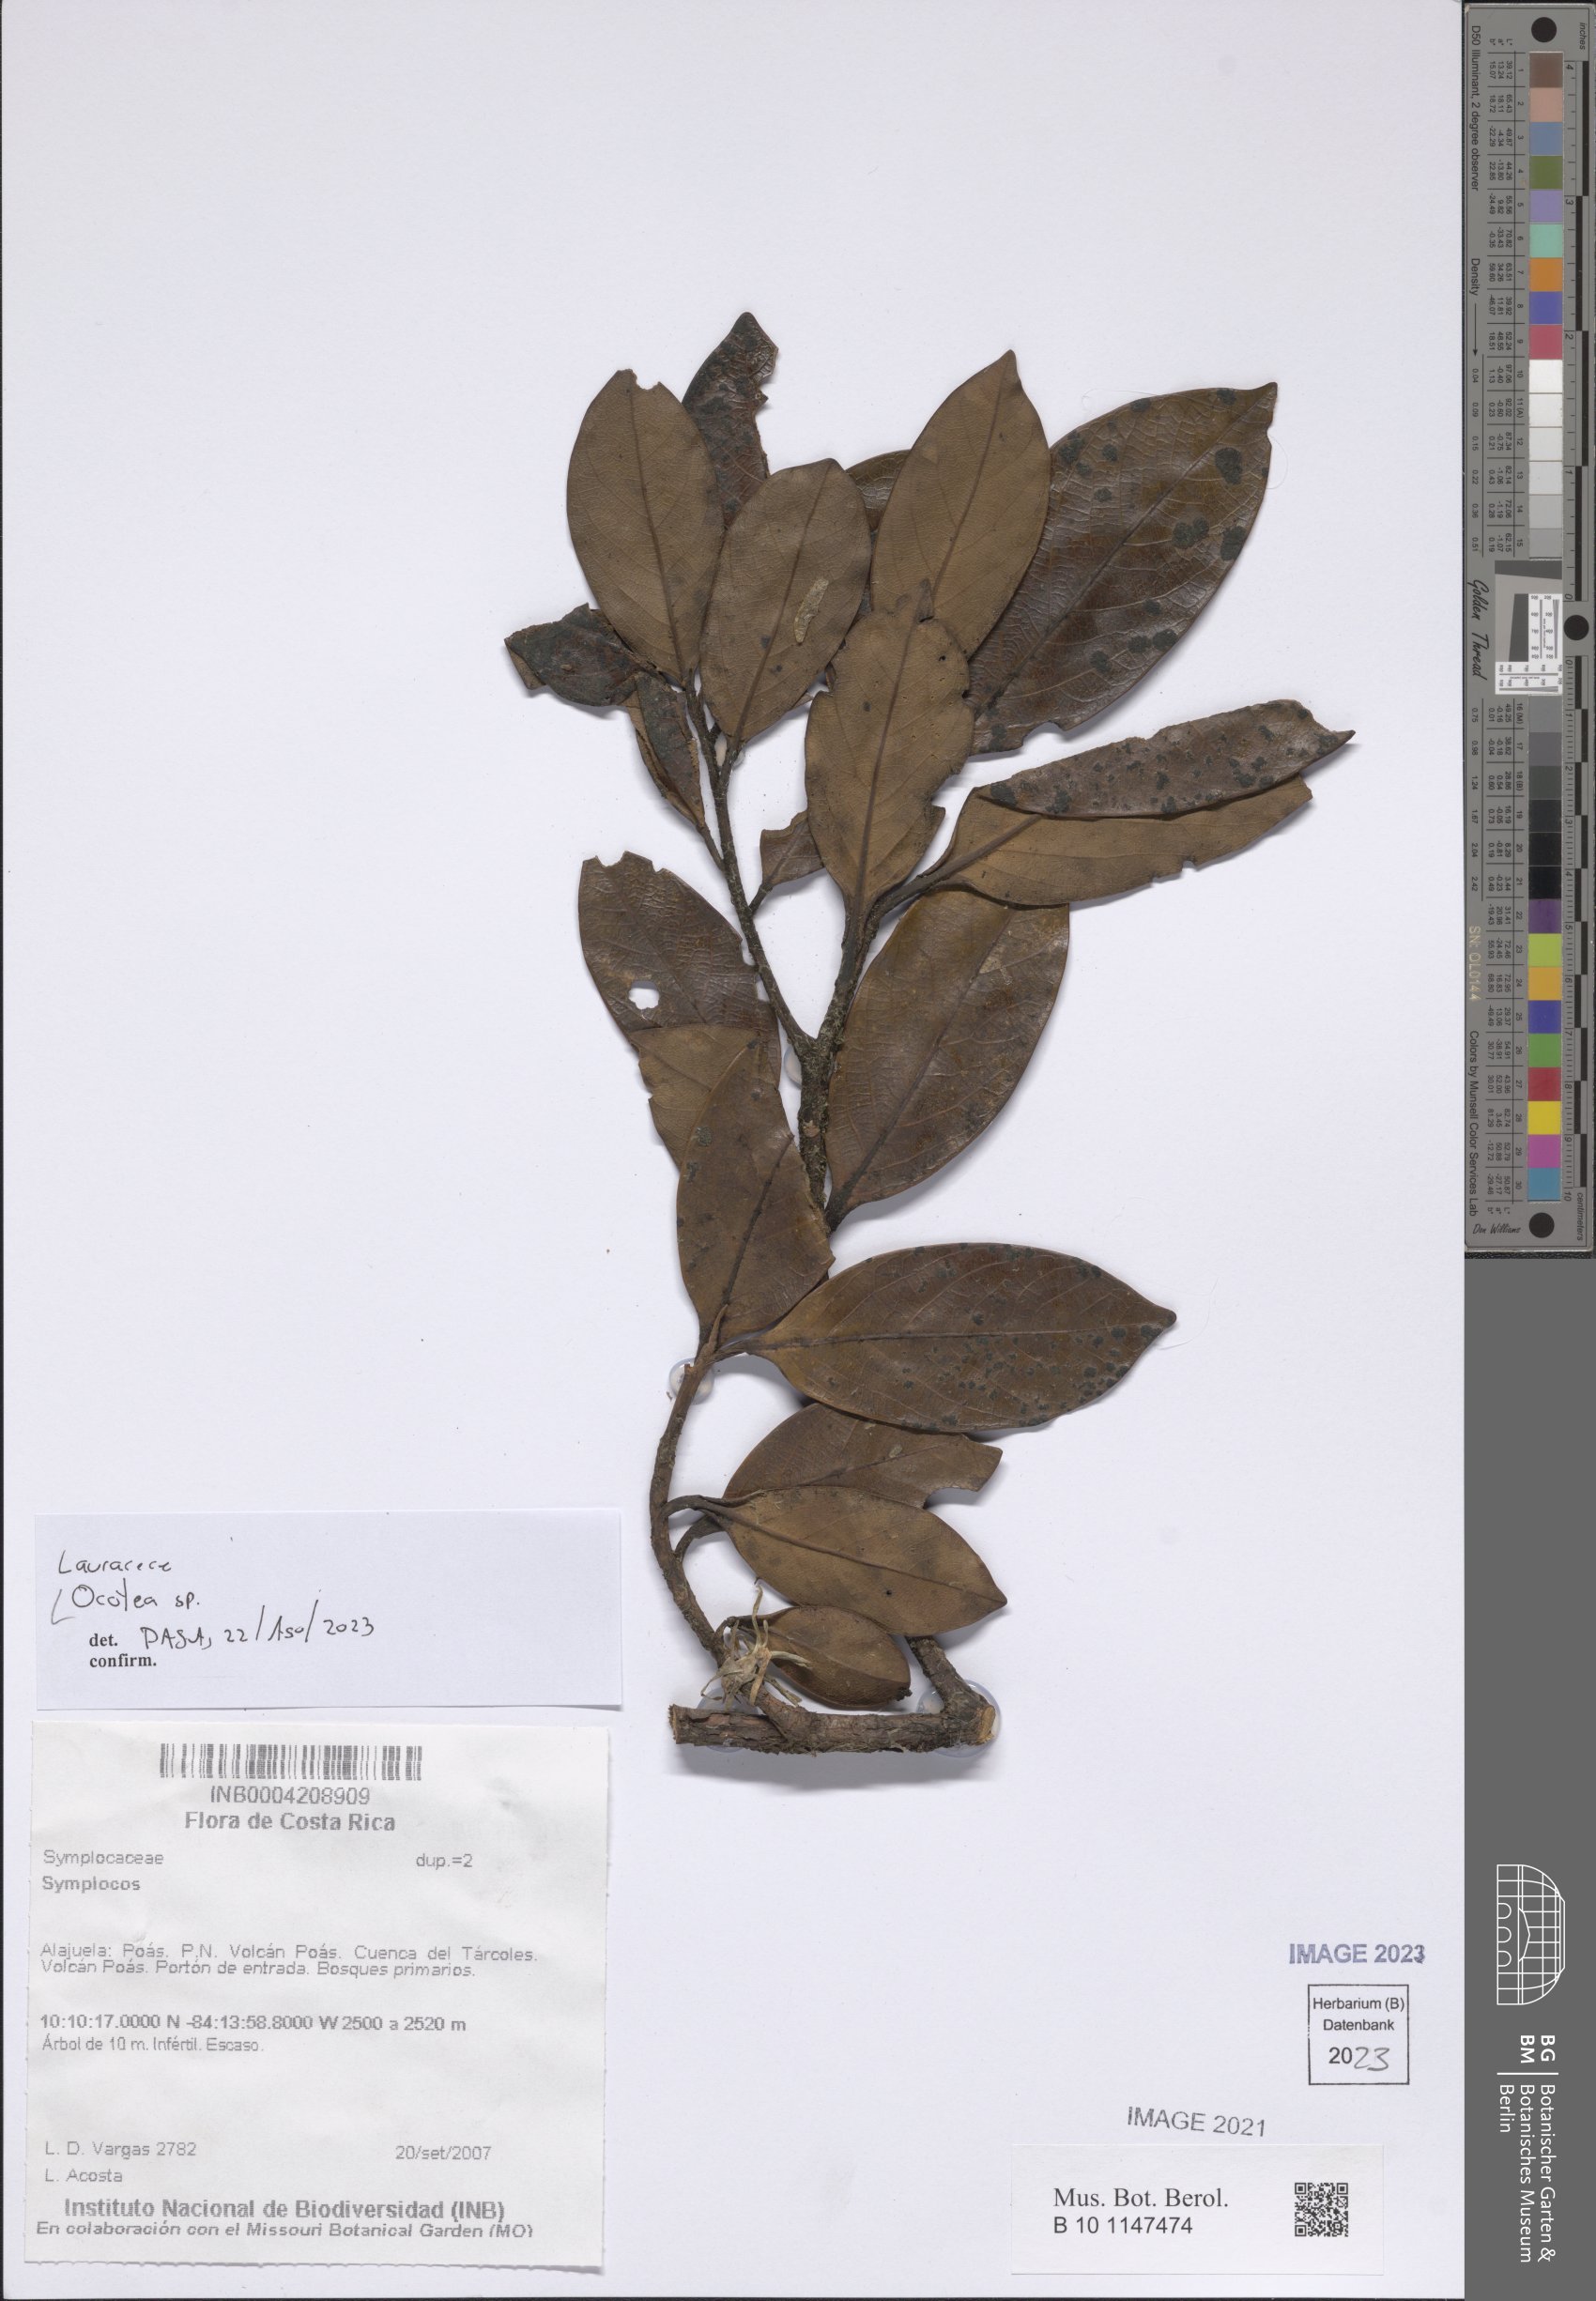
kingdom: Plantae
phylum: Tracheophyta
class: Magnoliopsida
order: Laurales
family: Lauraceae
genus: Ocotea
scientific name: Ocotea
